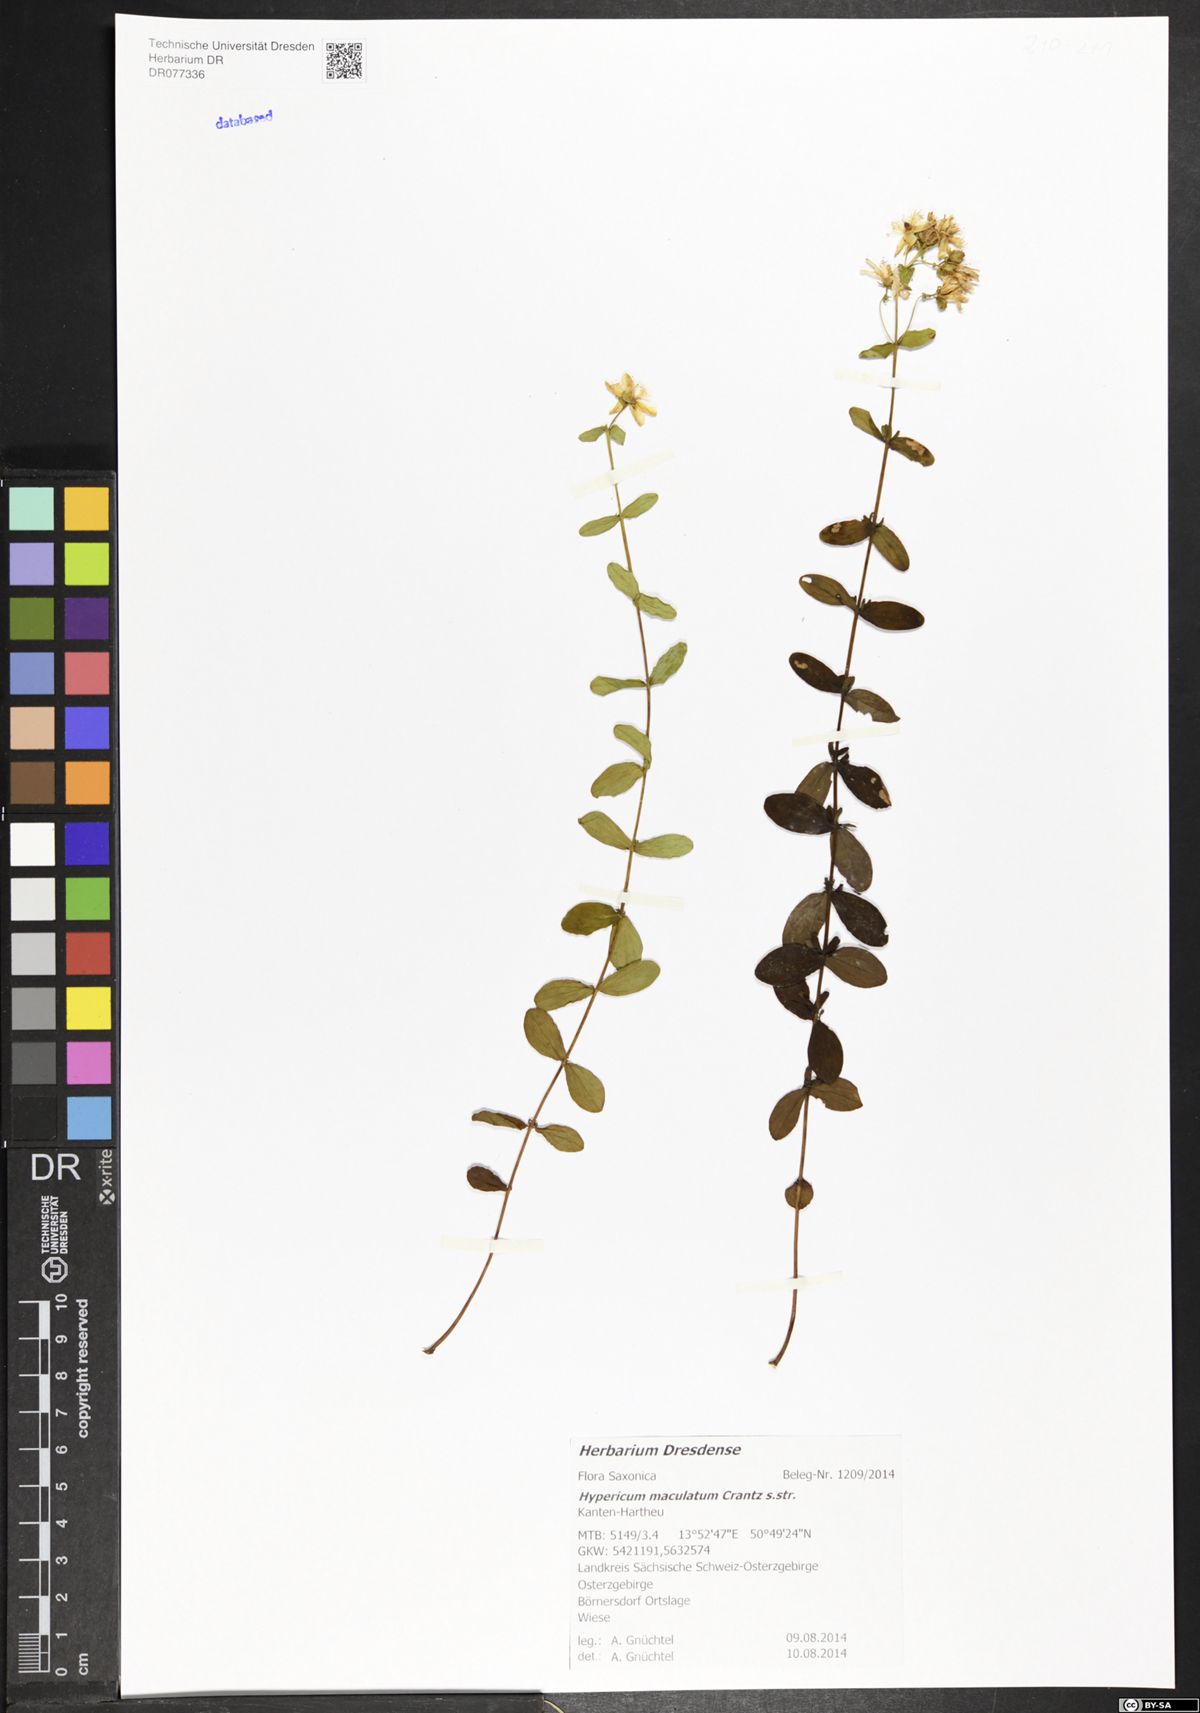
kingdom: Plantae
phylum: Tracheophyta
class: Magnoliopsida
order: Malpighiales
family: Hypericaceae
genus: Hypericum
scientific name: Hypericum maculatum
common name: Imperforate st. john's-wort
